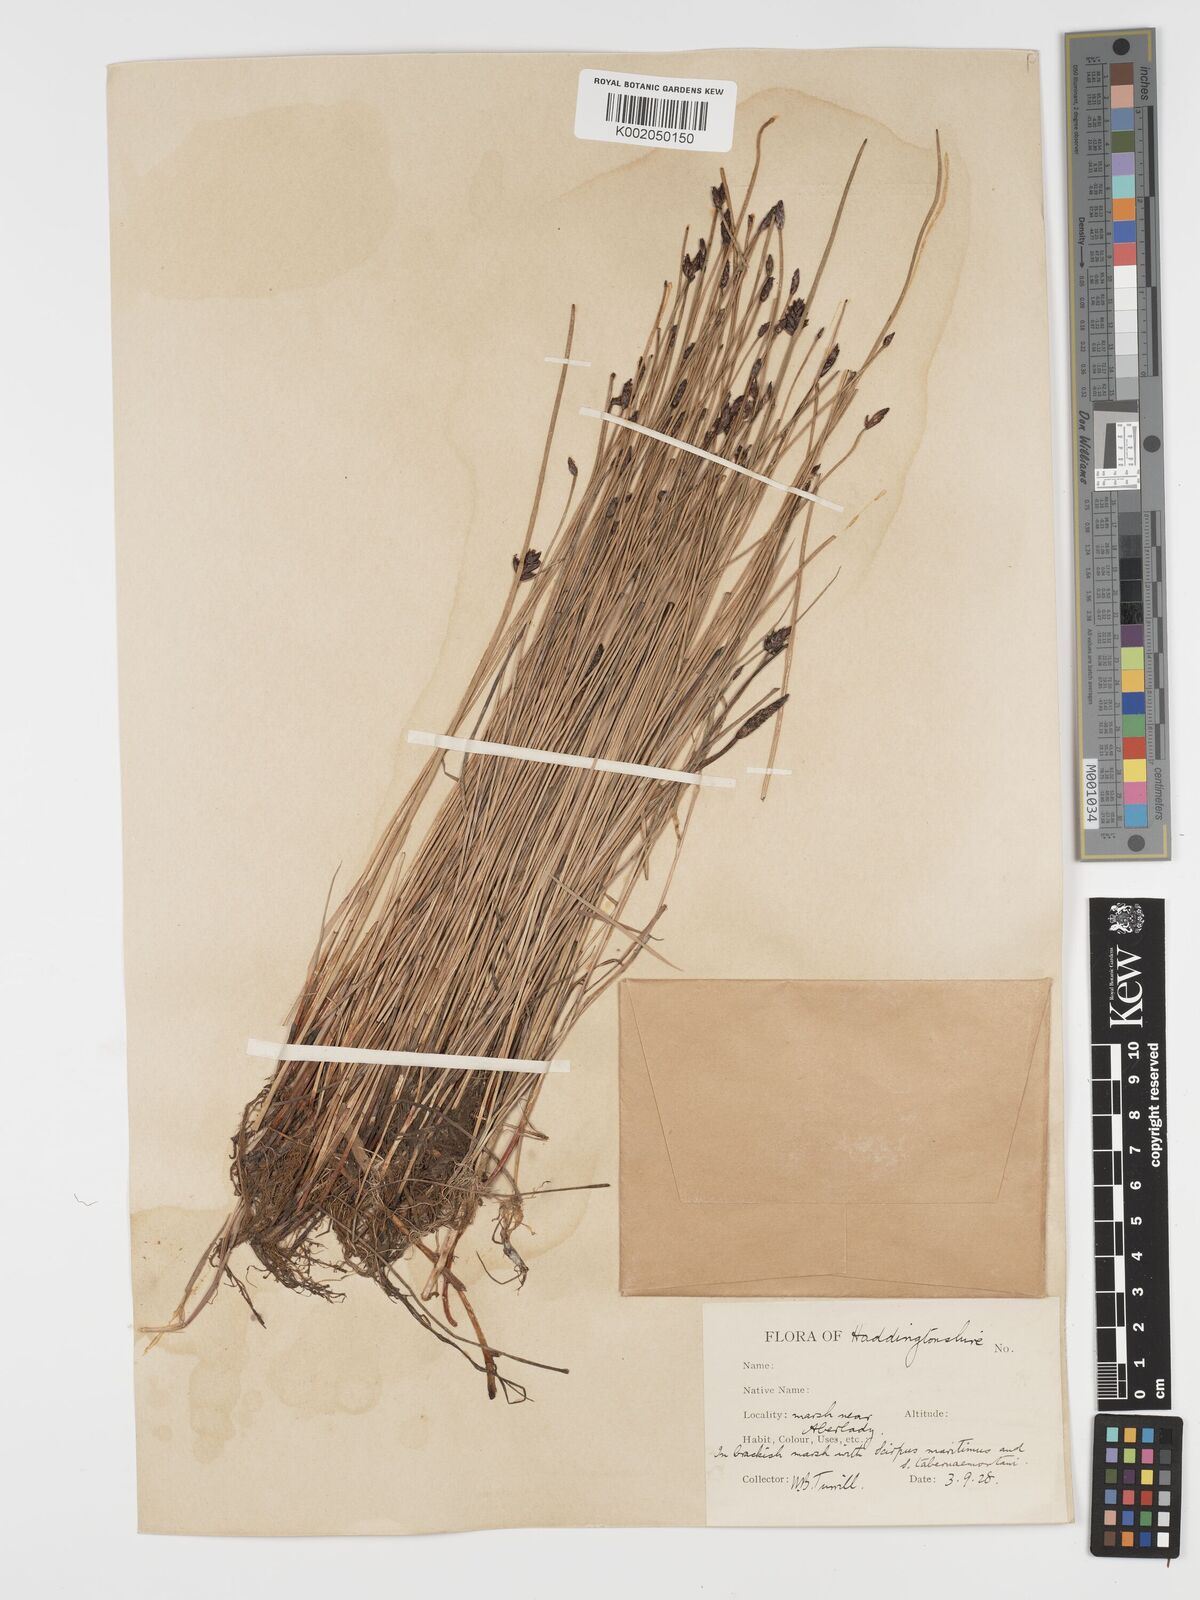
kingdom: Plantae
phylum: Tracheophyta
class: Liliopsida
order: Poales
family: Cyperaceae
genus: Blysmus
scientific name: Blysmus rufus
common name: Saltmarsh flat-sedge
